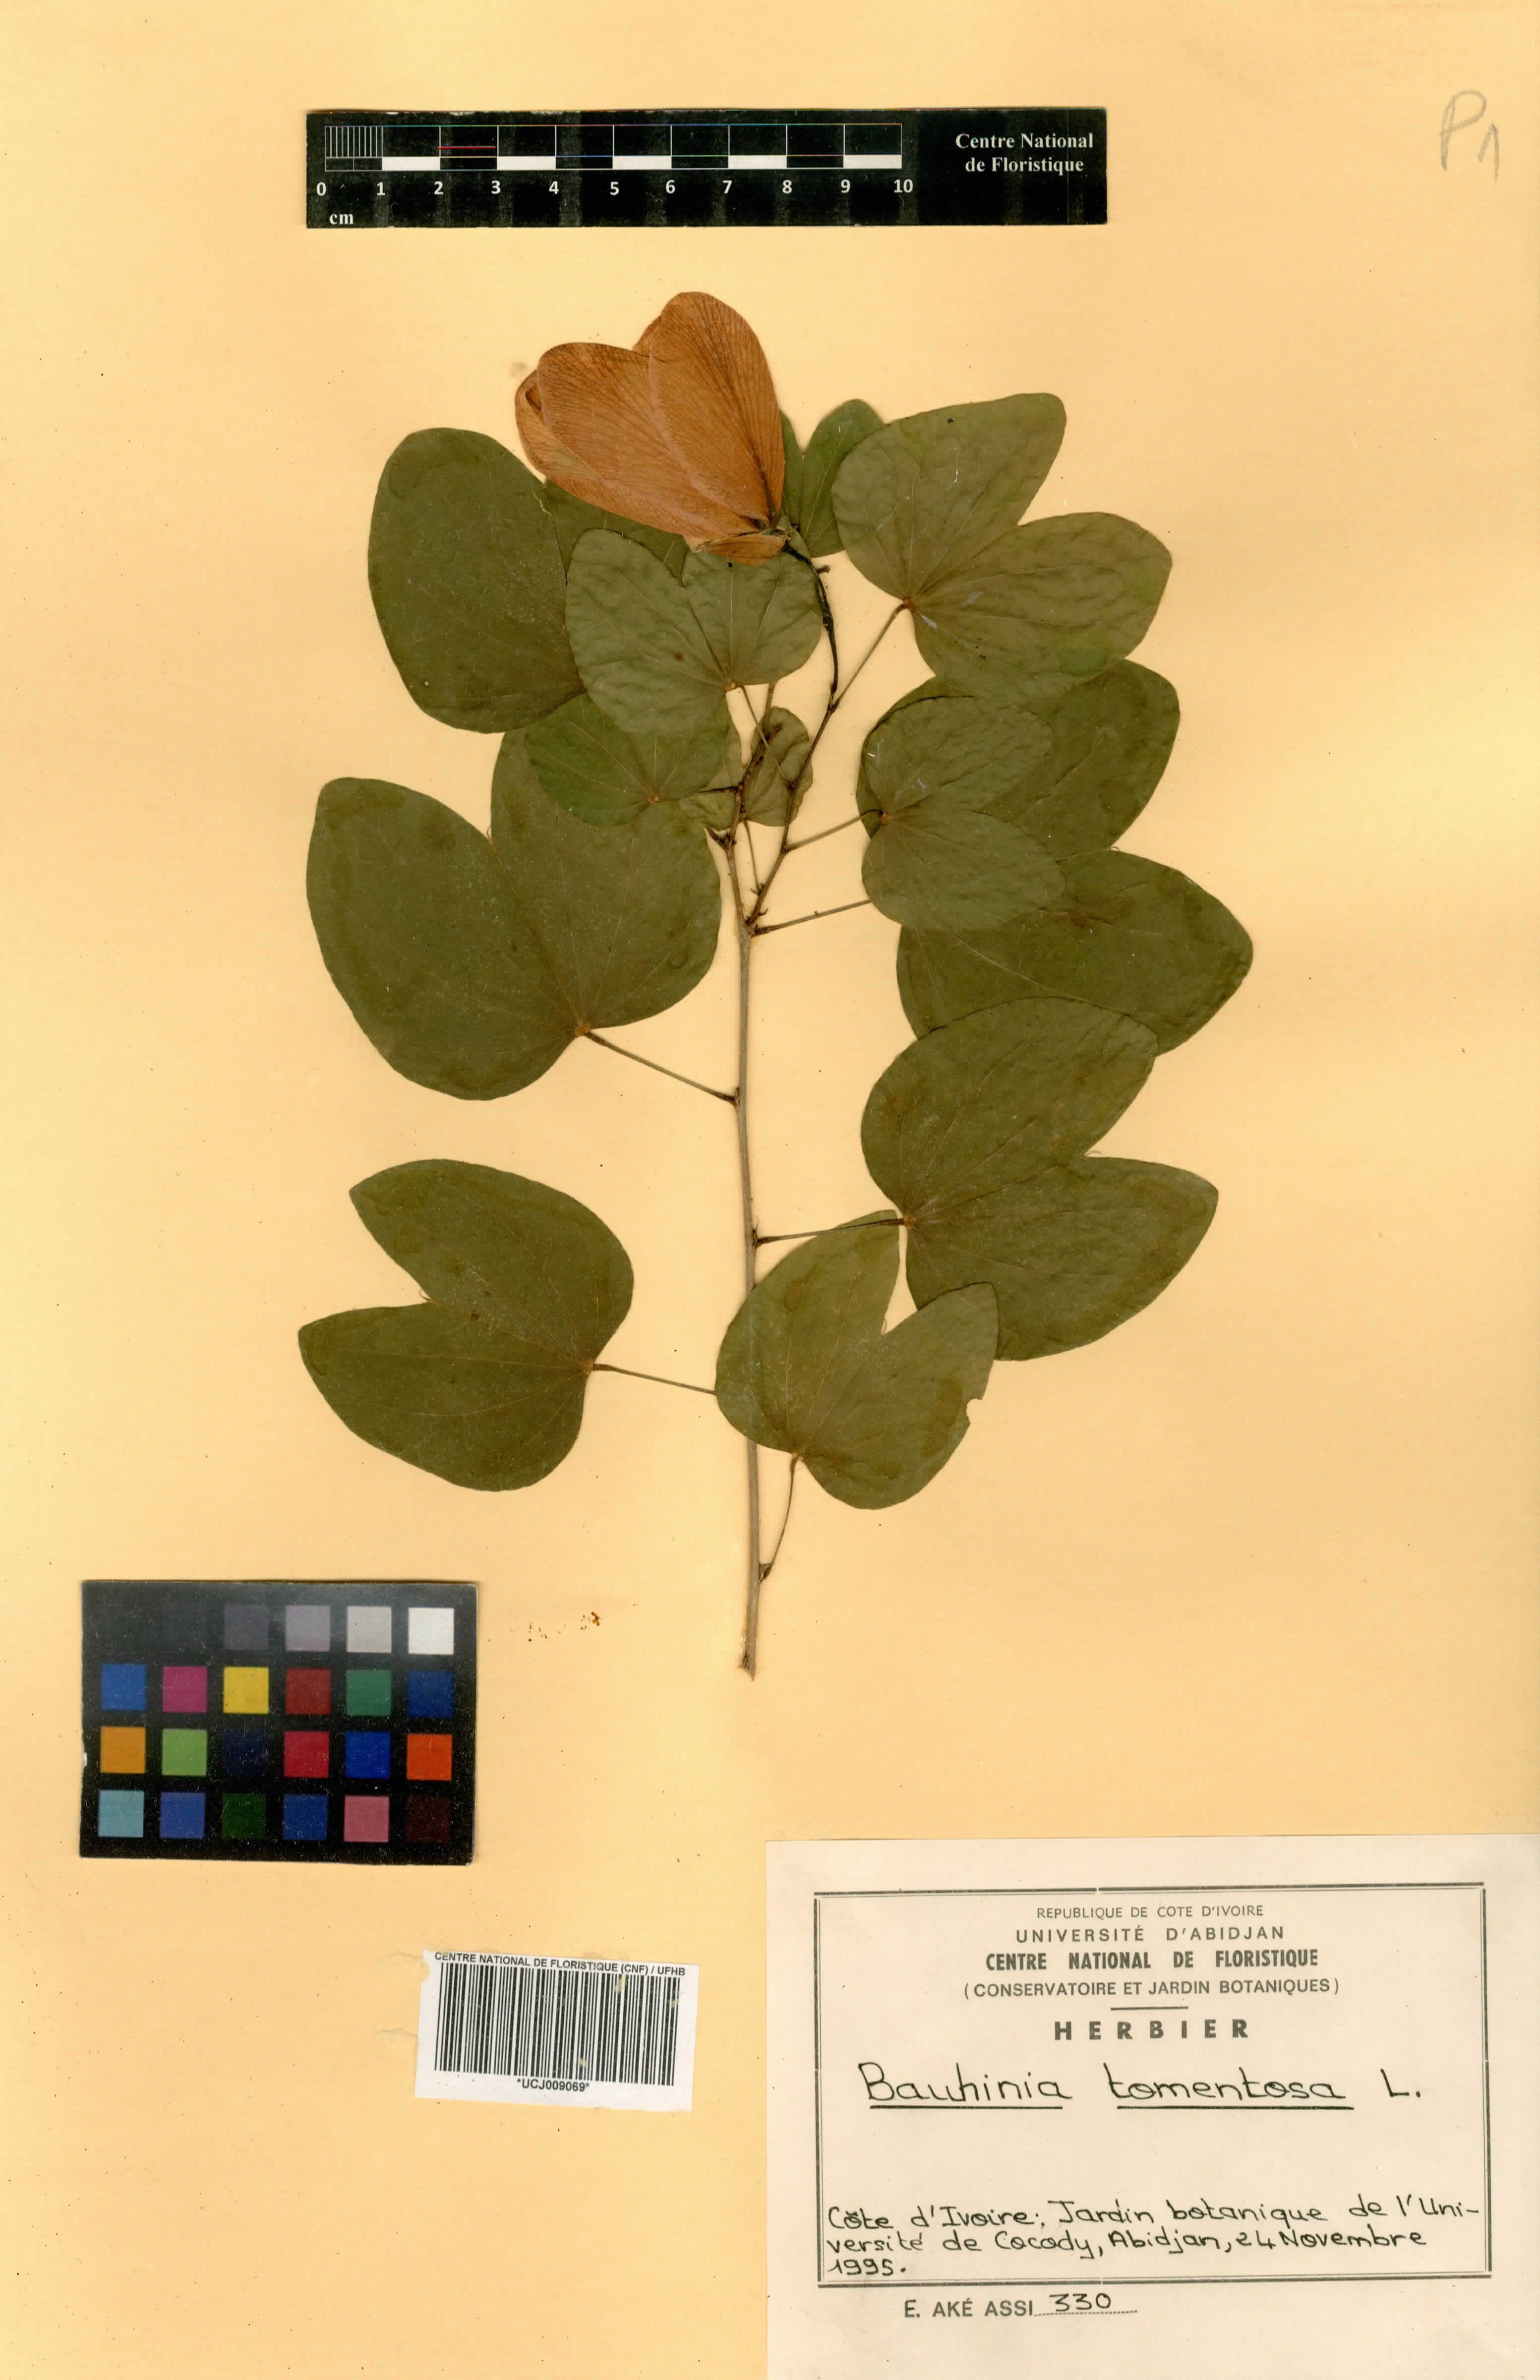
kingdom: Plantae
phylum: Tracheophyta
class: Magnoliopsida
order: Fabales
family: Fabaceae
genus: Bauhinia
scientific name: Bauhinia tomentosa
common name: Bell bauhinia
